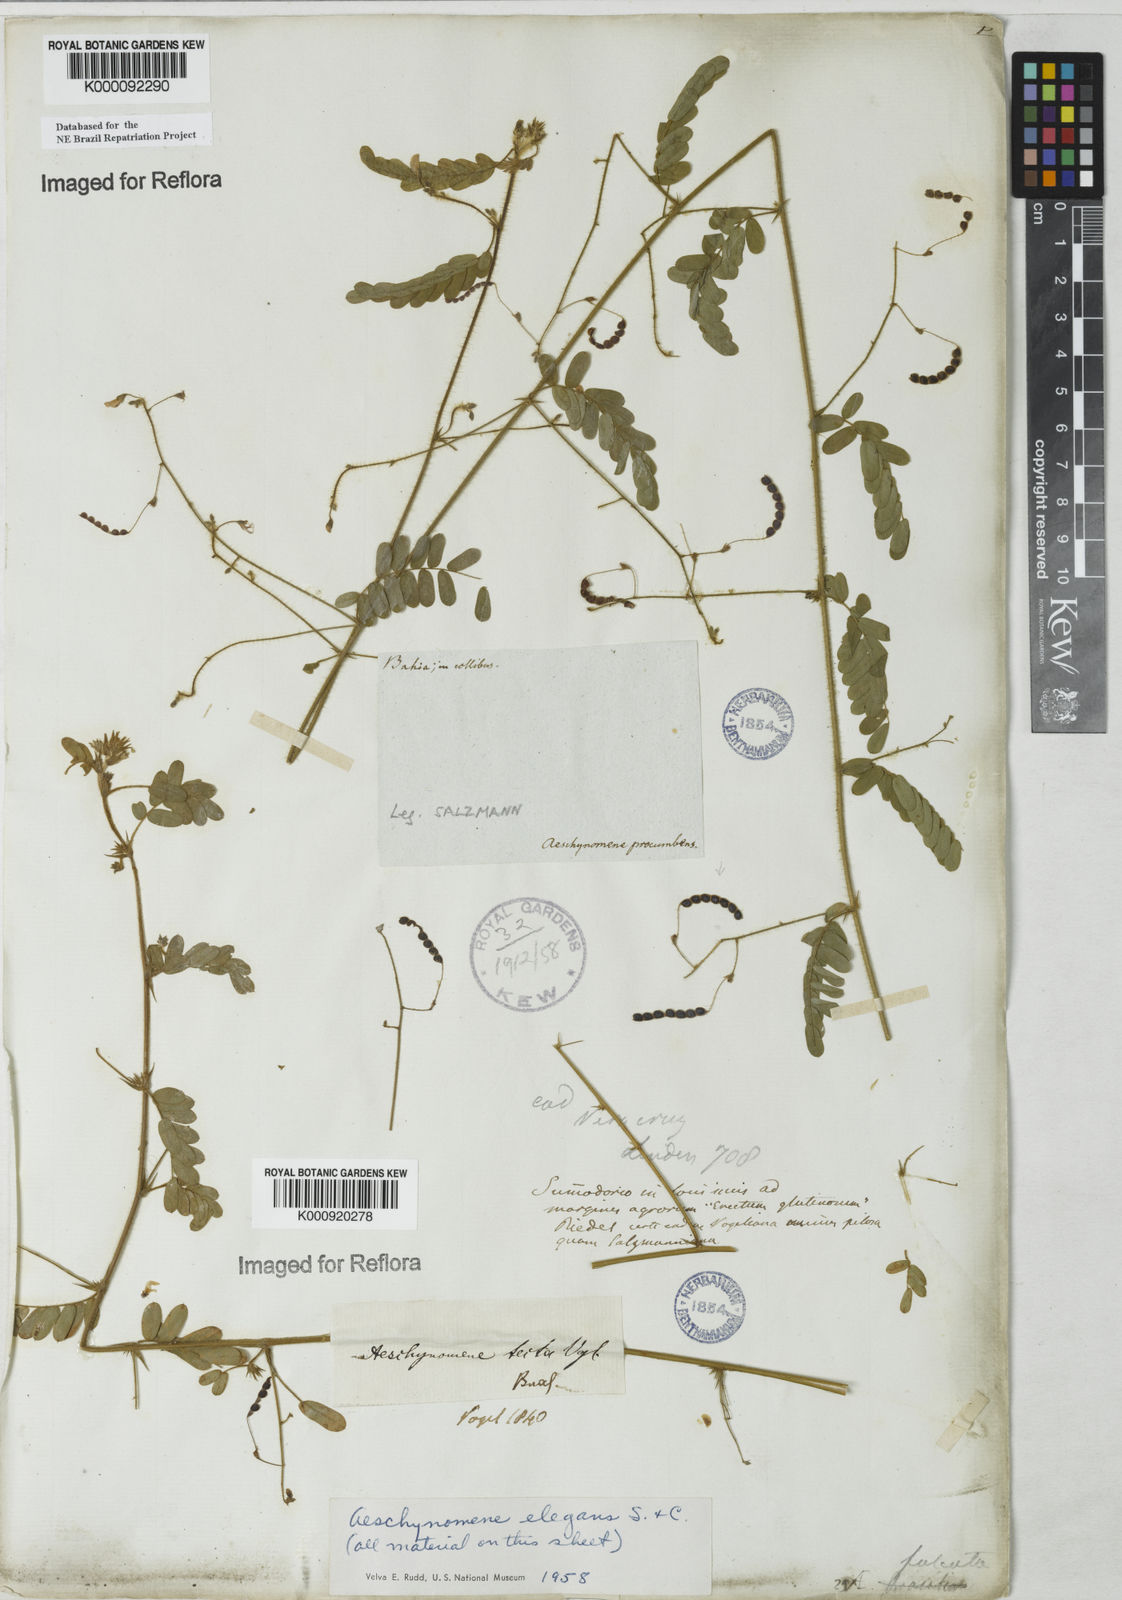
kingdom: Plantae
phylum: Tracheophyta
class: Magnoliopsida
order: Fabales
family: Fabaceae
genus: Ctenodon
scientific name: Ctenodon elegans
